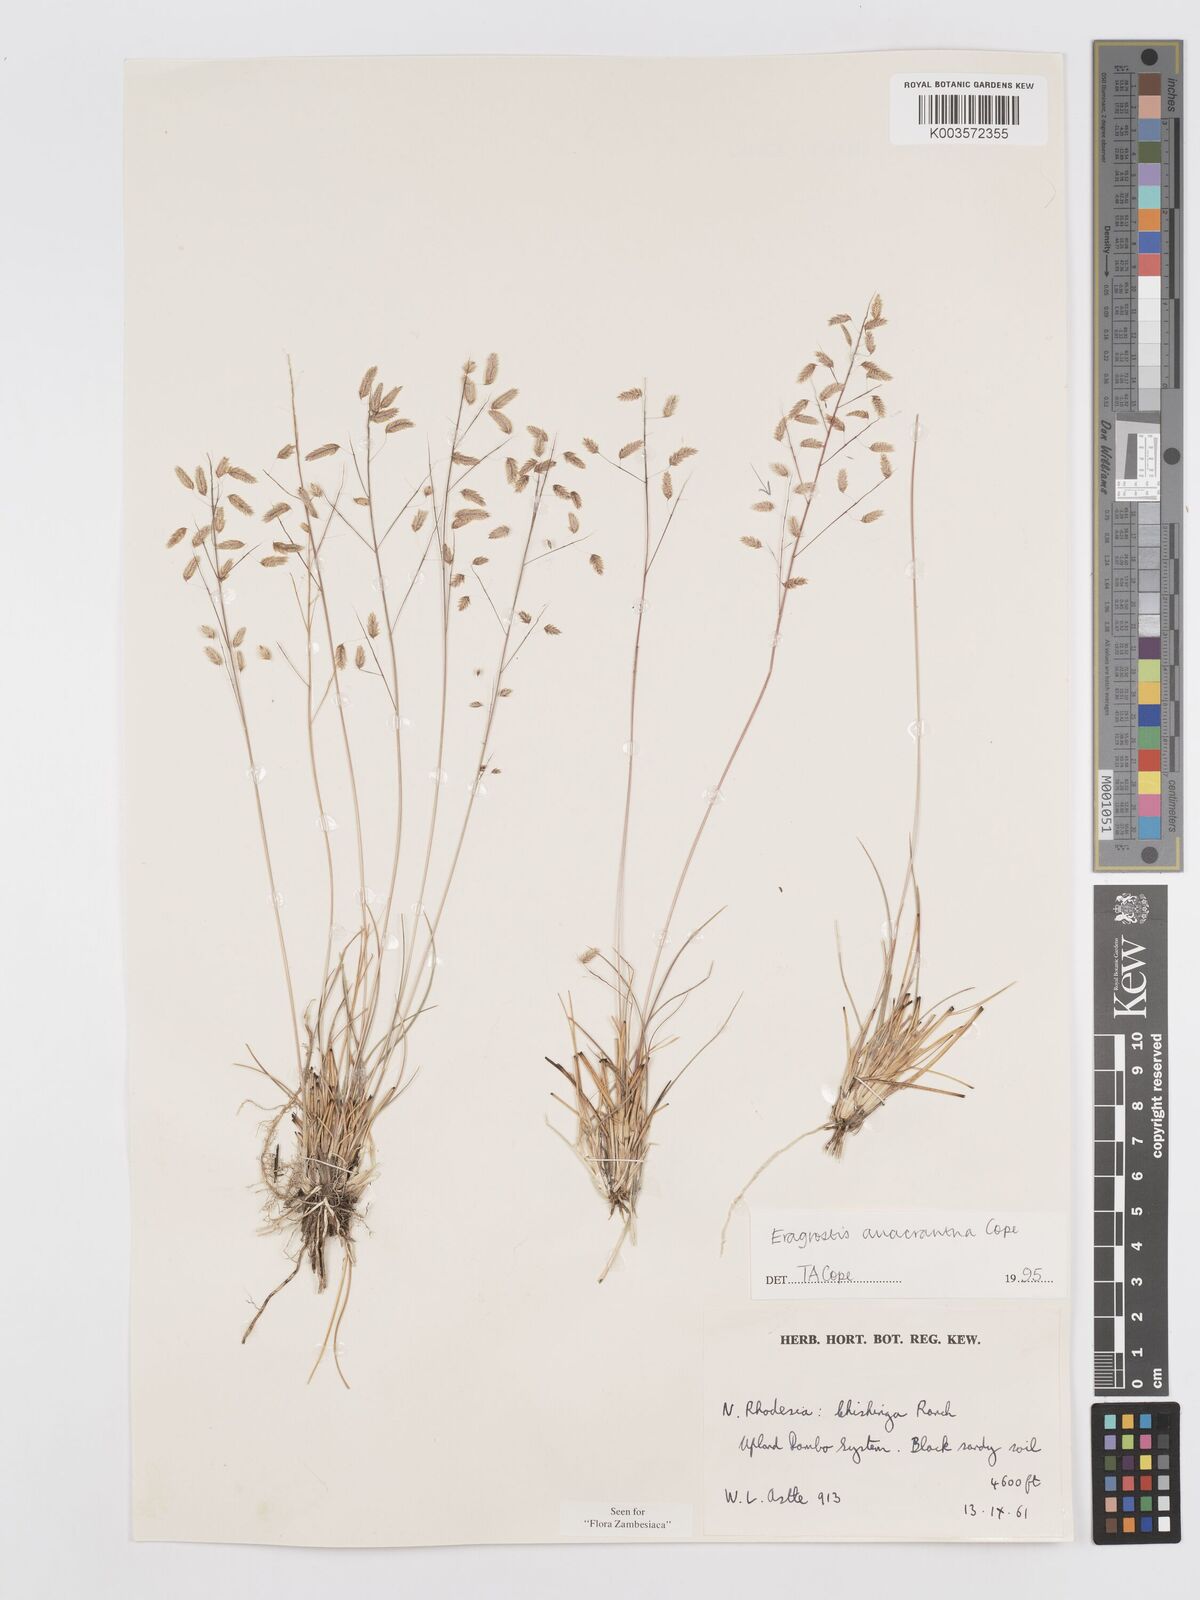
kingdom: Plantae
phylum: Tracheophyta
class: Liliopsida
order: Poales
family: Poaceae
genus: Eragrostis
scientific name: Eragrostis anacrantha
